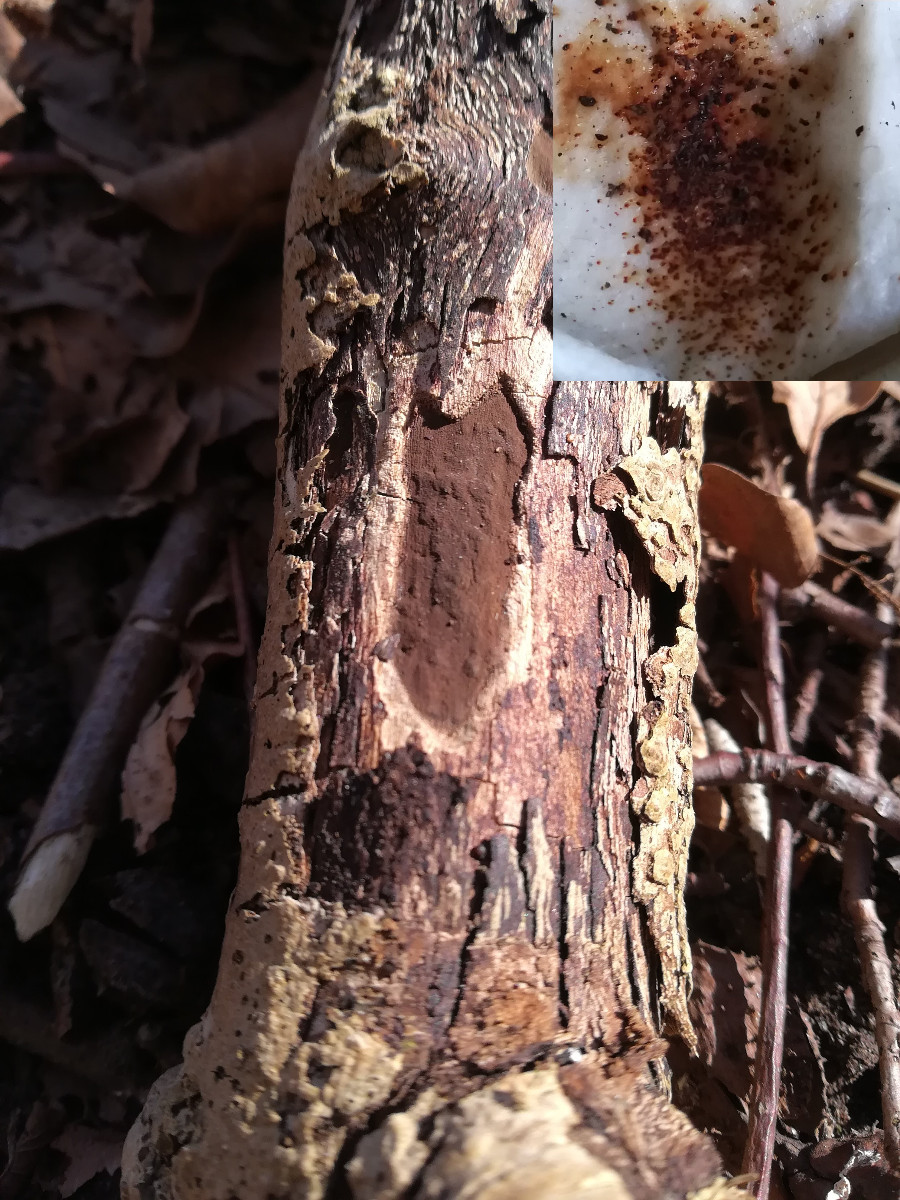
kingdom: Fungi
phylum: Ascomycota
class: Sordariomycetes
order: Xylariales
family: Hypoxylaceae
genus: Hypoxylon
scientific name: Hypoxylon petriniae
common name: nedsænket kulbær
